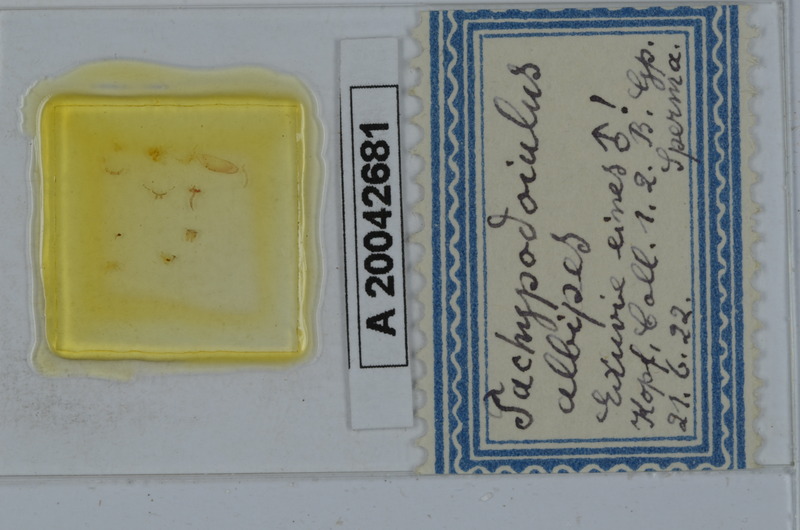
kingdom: Animalia
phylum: Arthropoda
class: Diplopoda
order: Julida
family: Julidae
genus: Tachypodoiulus
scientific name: Tachypodoiulus niger
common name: White-legged snake millipede
